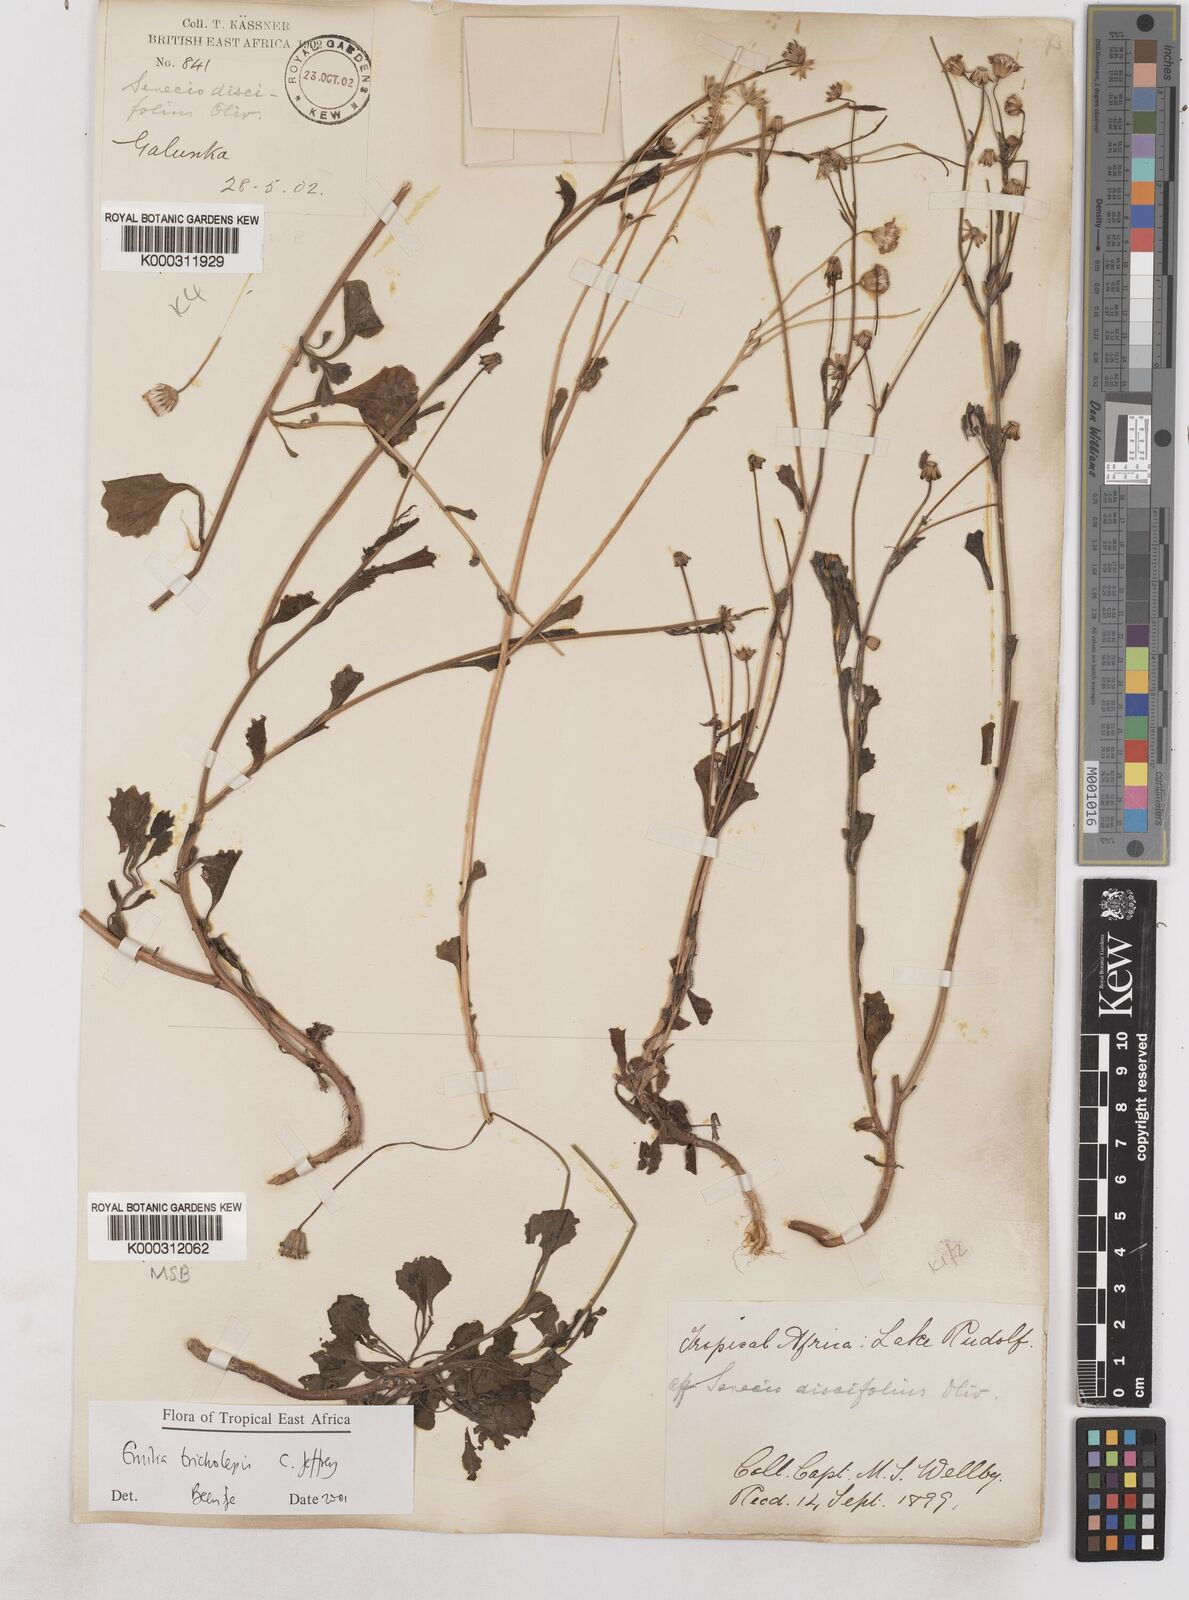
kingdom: Plantae
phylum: Tracheophyta
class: Magnoliopsida
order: Asterales
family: Asteraceae
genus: Emilia
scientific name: Emilia tricholepis
